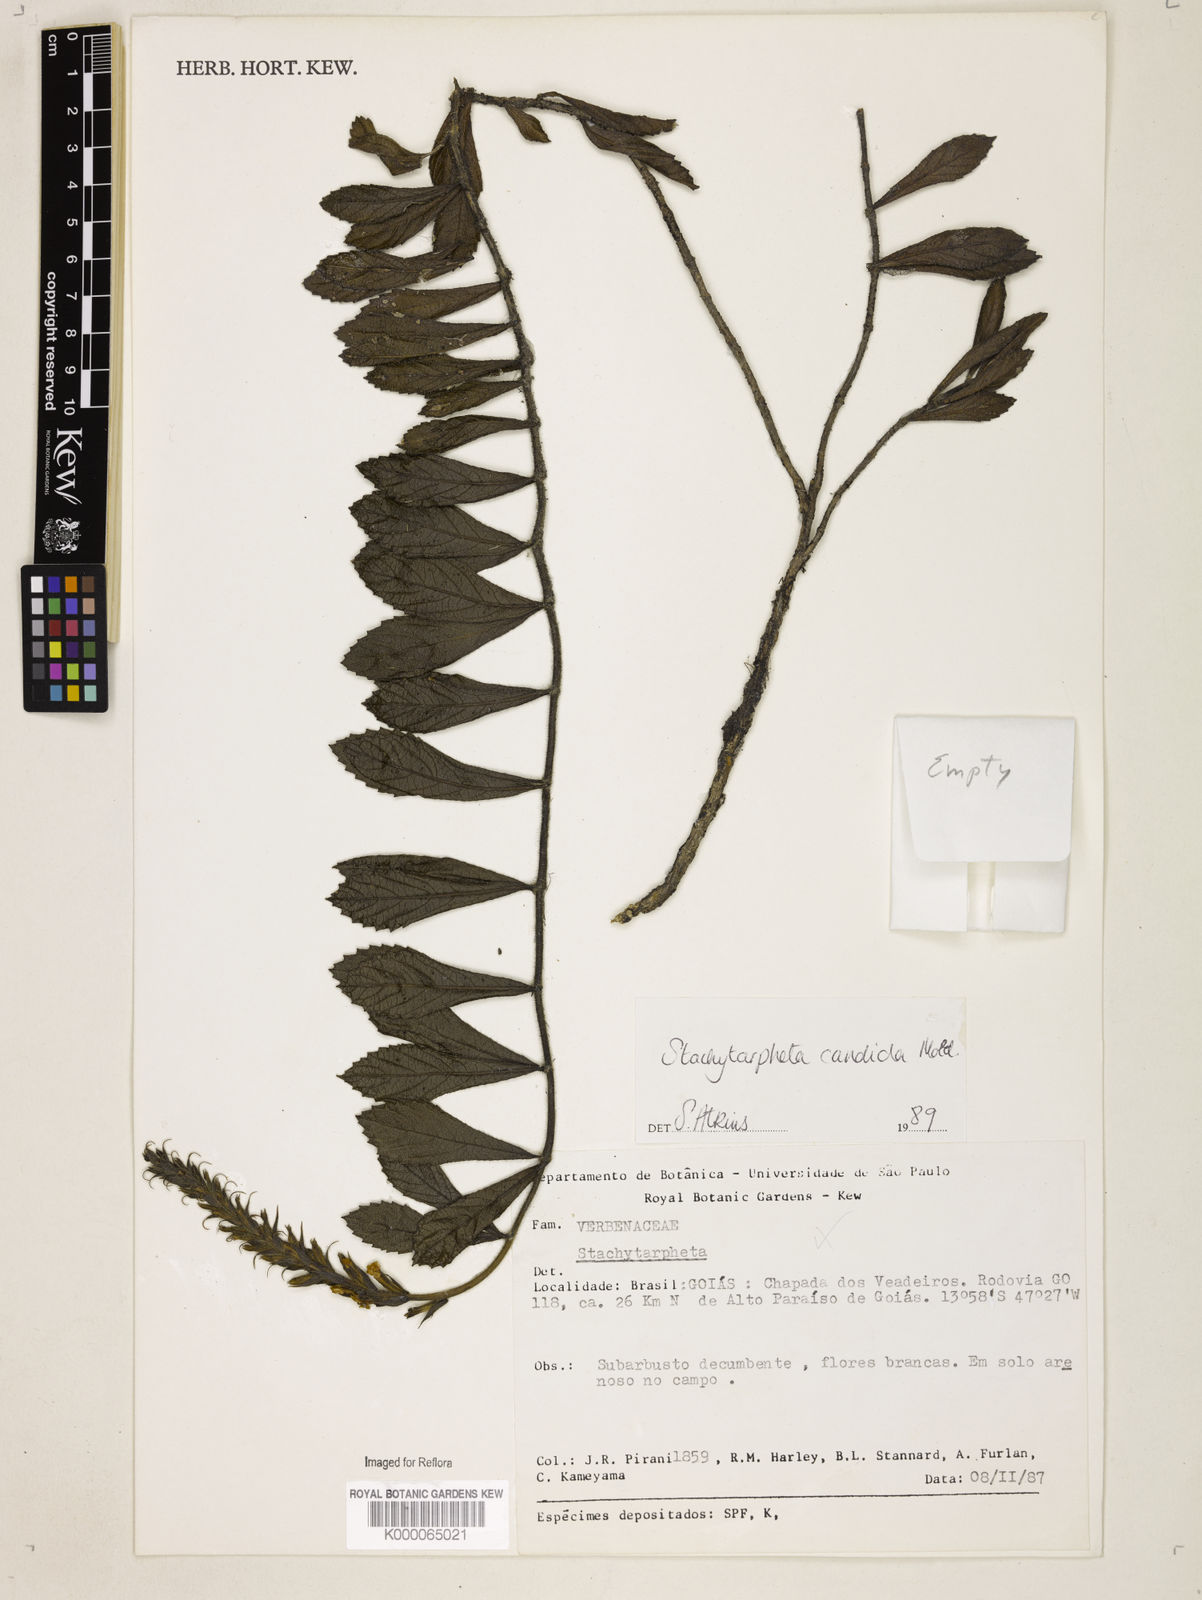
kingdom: Plantae
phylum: Tracheophyta
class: Magnoliopsida
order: Lamiales
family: Verbenaceae
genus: Stachytarpheta
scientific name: Stachytarpheta candida
